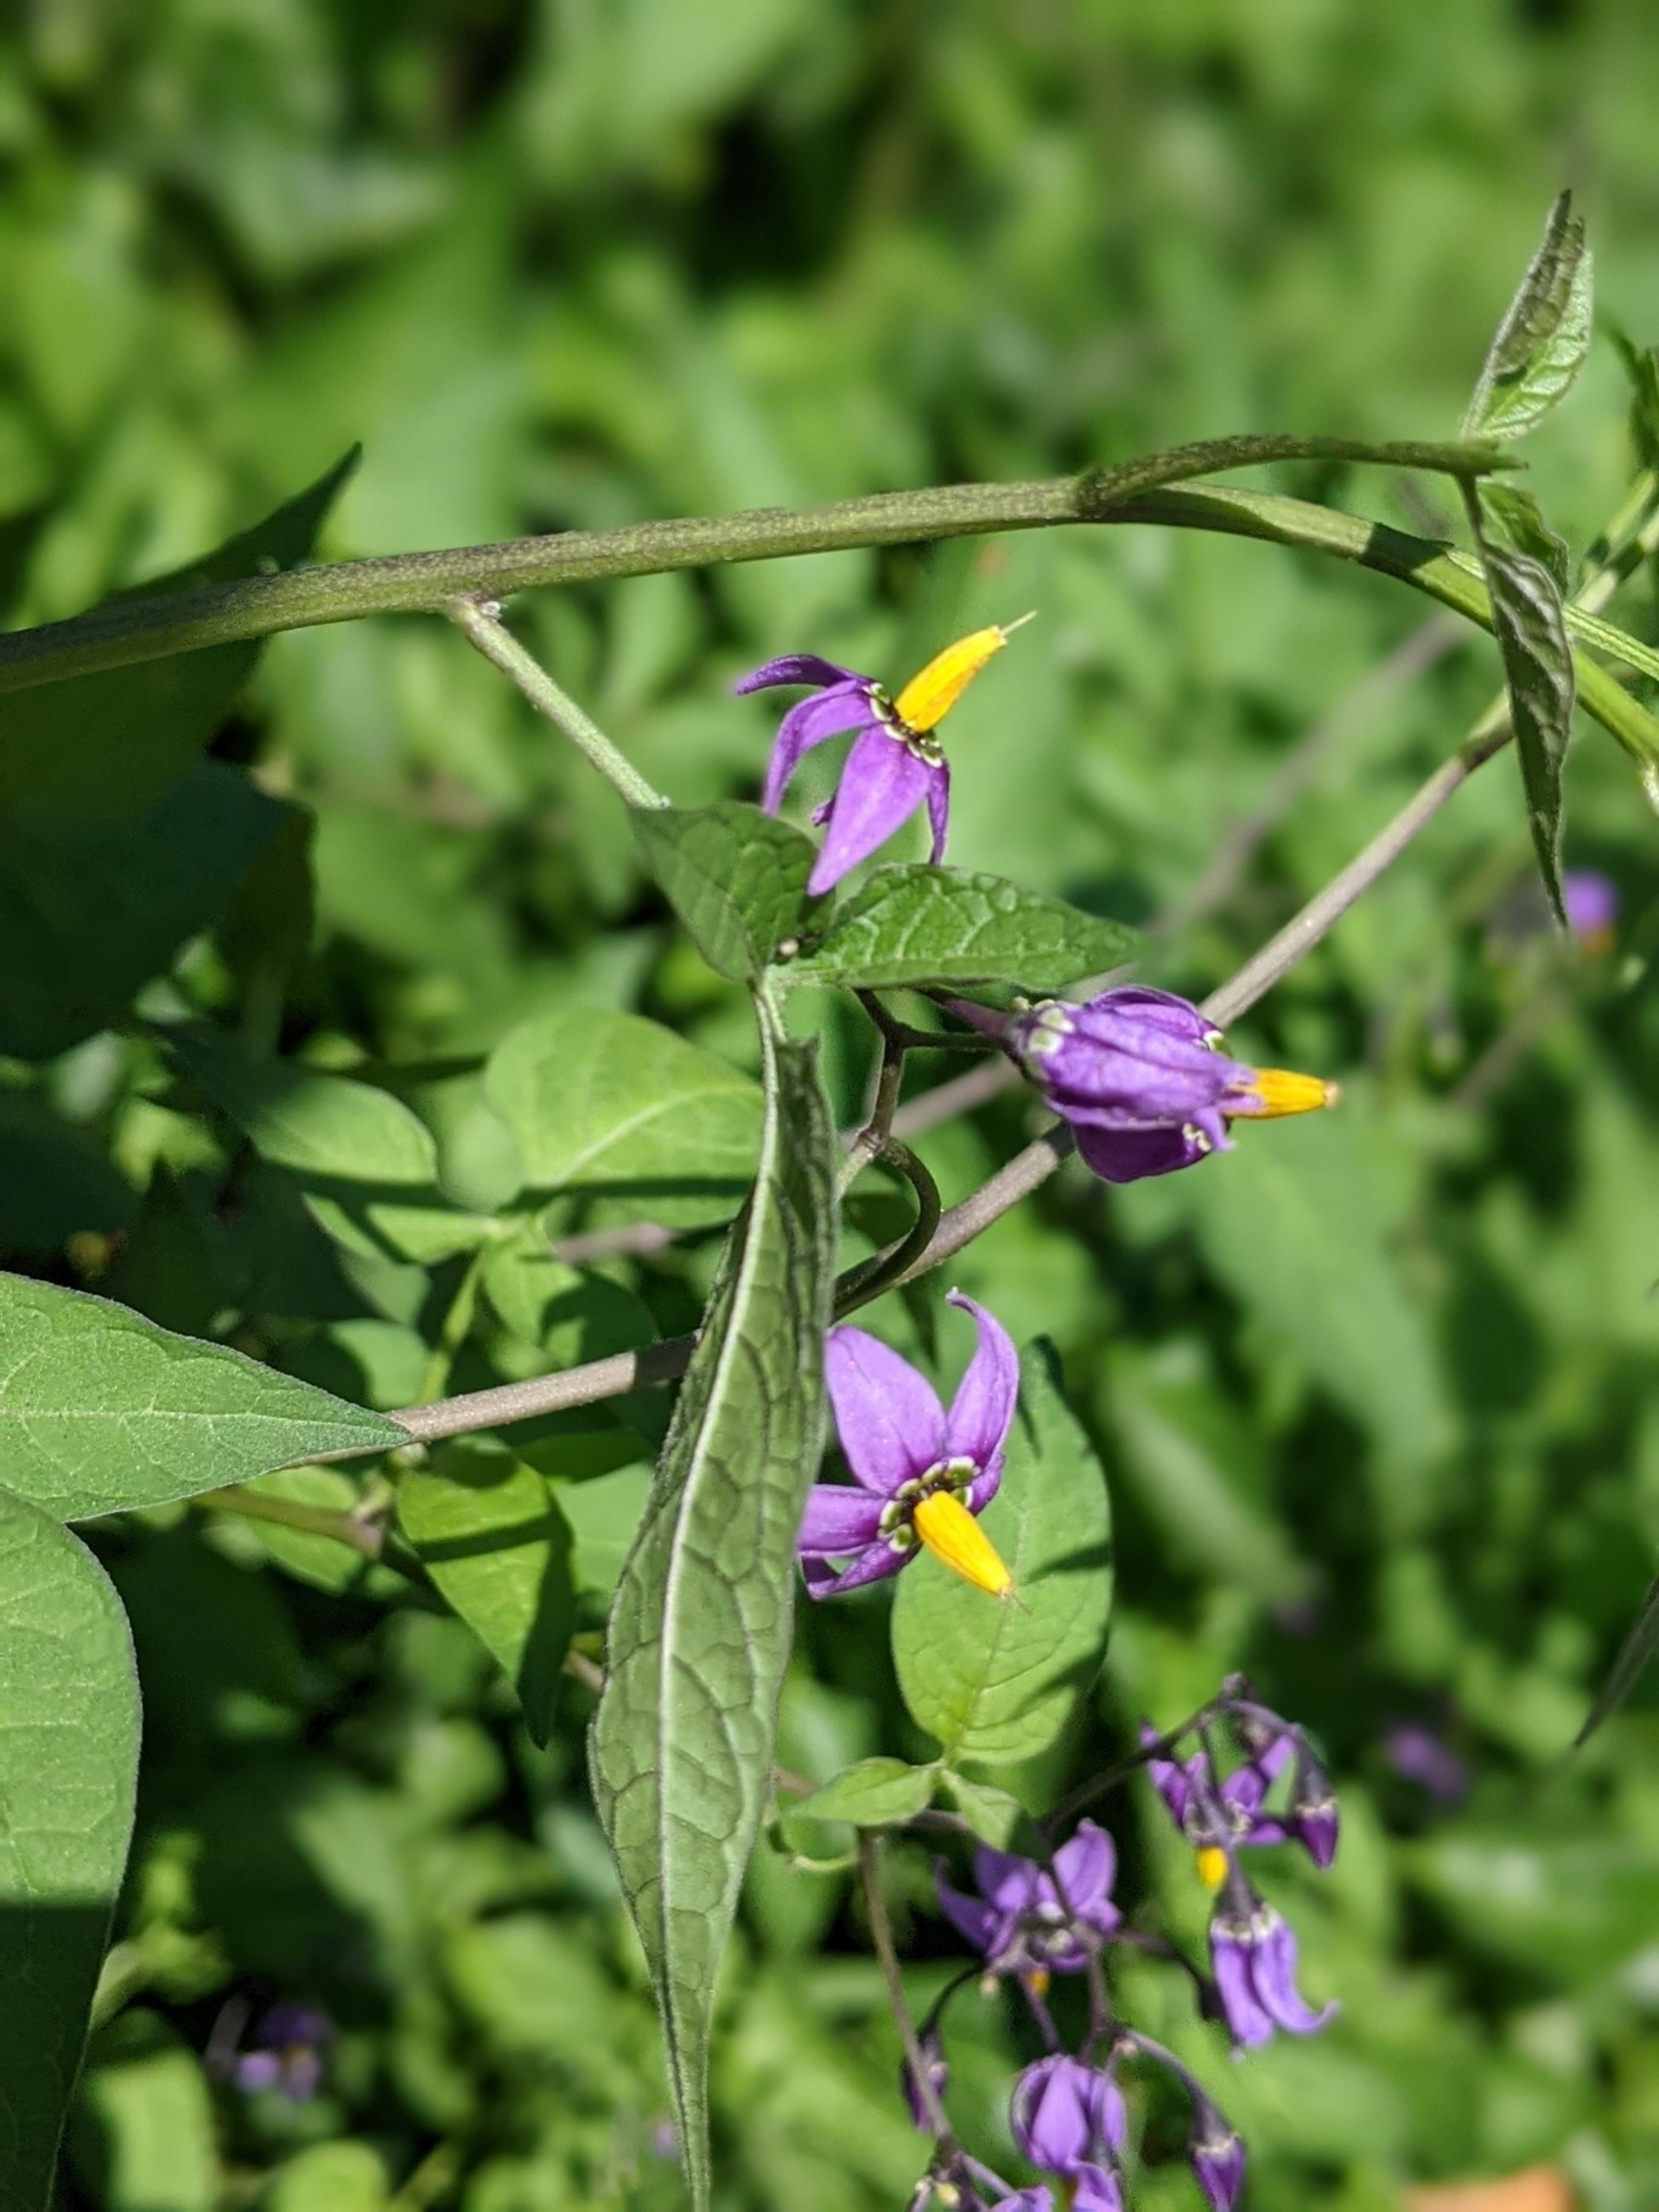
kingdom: Plantae
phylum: Tracheophyta
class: Magnoliopsida
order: Solanales
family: Solanaceae
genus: Solanum
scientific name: Solanum dulcamara
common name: Bittersød natskygge
